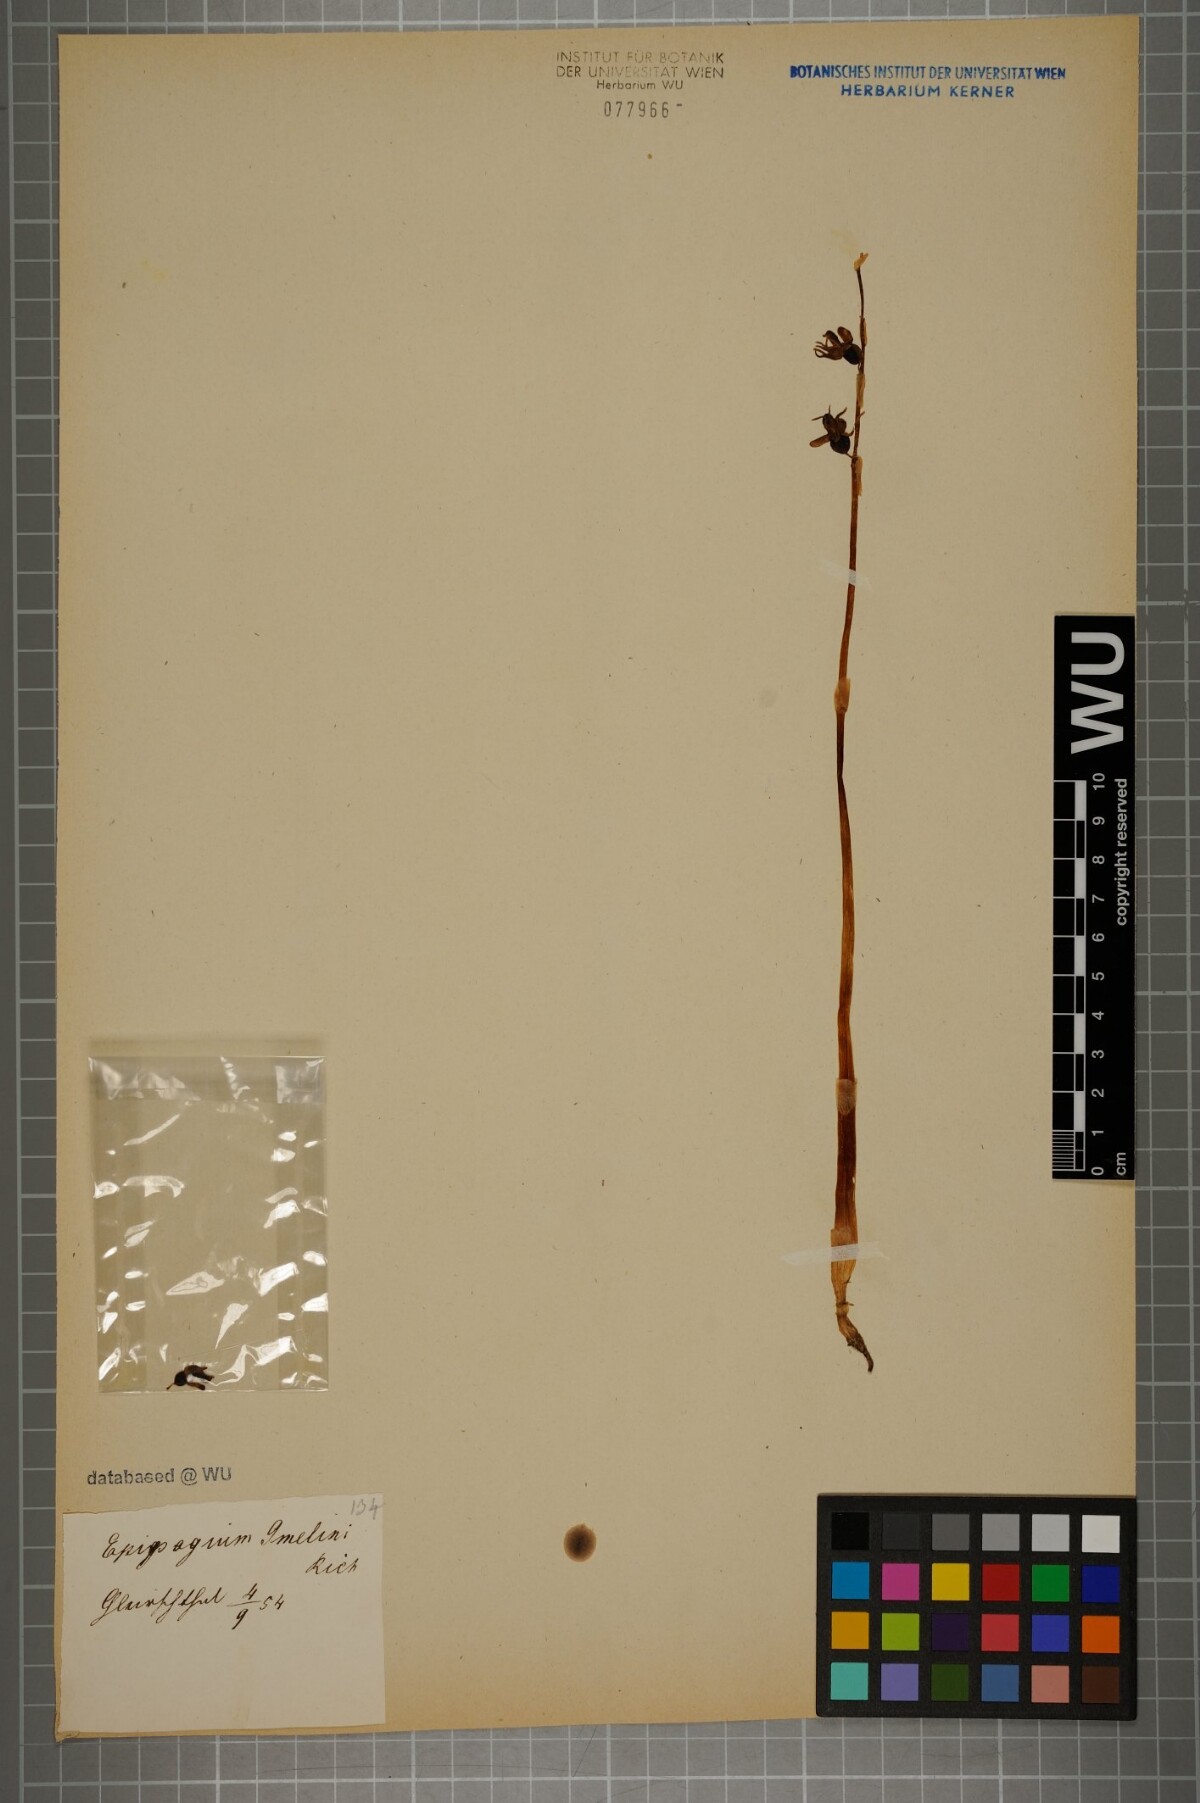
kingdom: Plantae
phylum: Tracheophyta
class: Liliopsida
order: Asparagales
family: Orchidaceae
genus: Epipogium
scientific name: Epipogium aphyllum
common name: Ghost orchid
